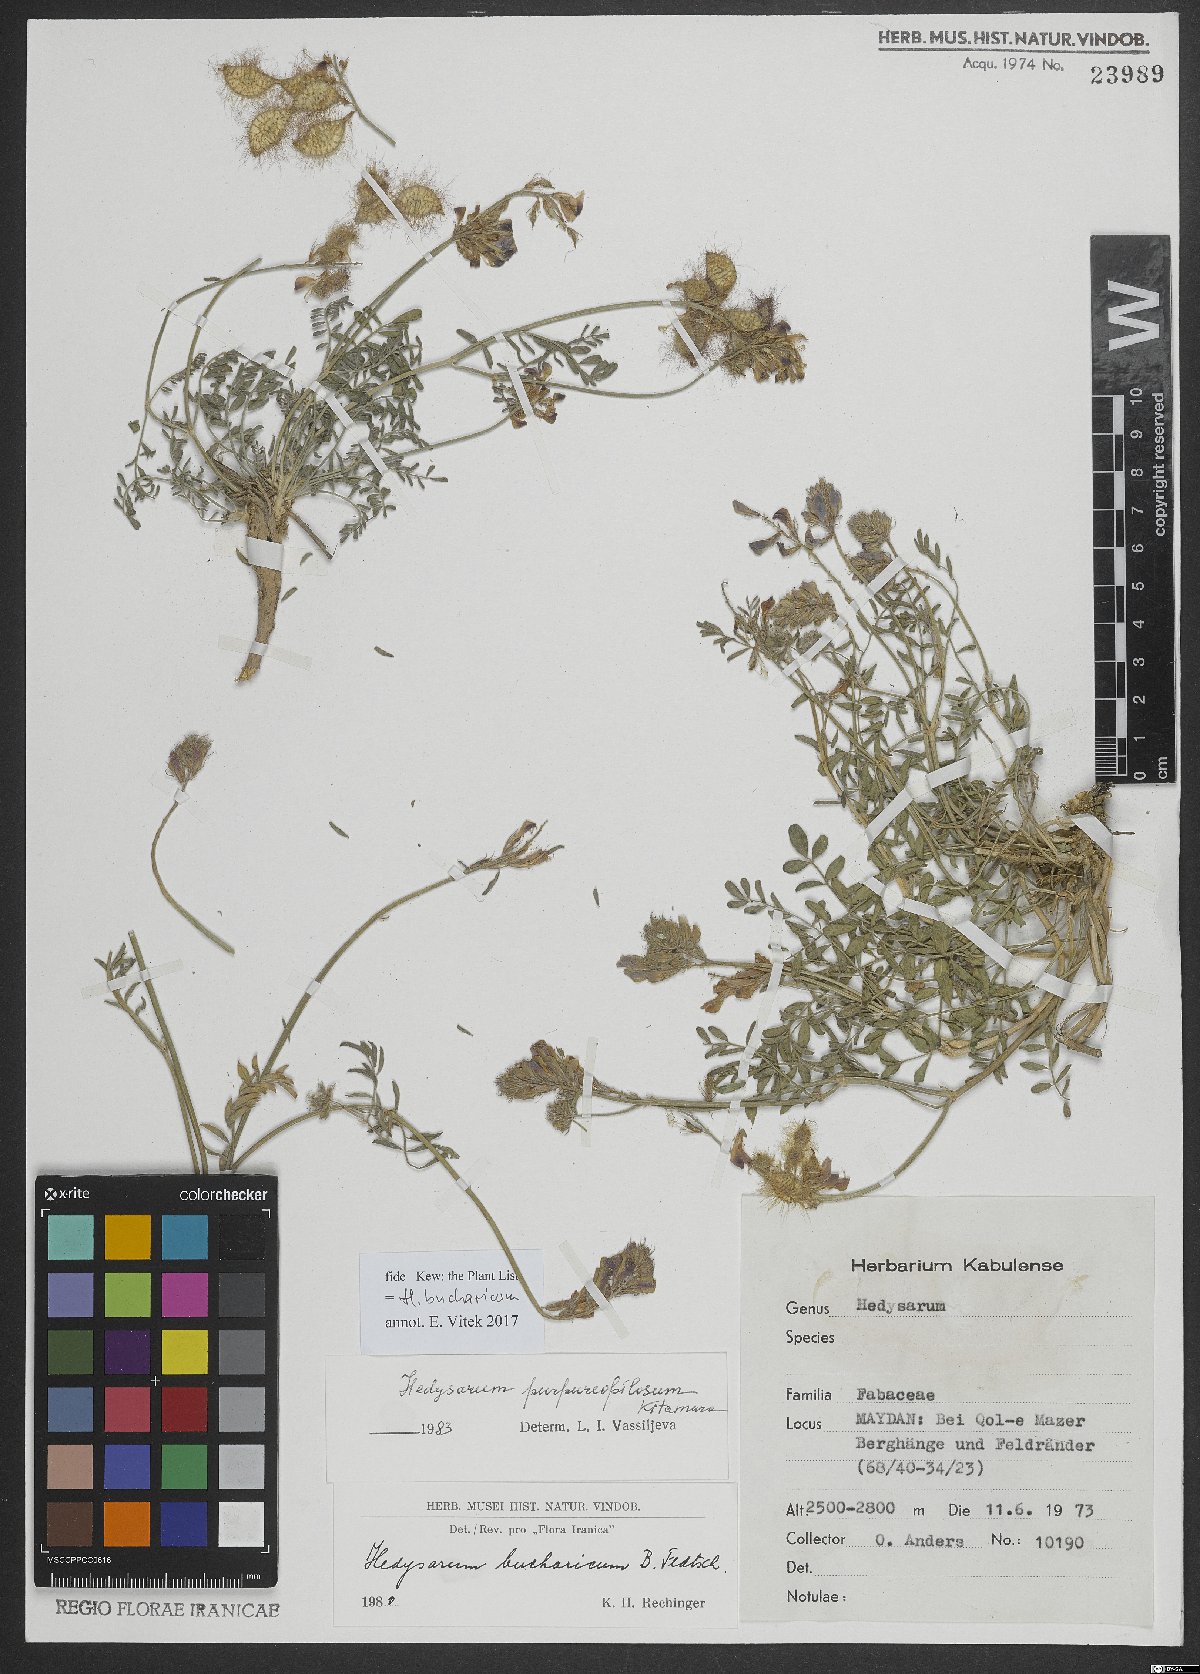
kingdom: Plantae
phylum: Tracheophyta
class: Magnoliopsida
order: Fabales
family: Fabaceae
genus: Hedysarum
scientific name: Hedysarum bucharicum
